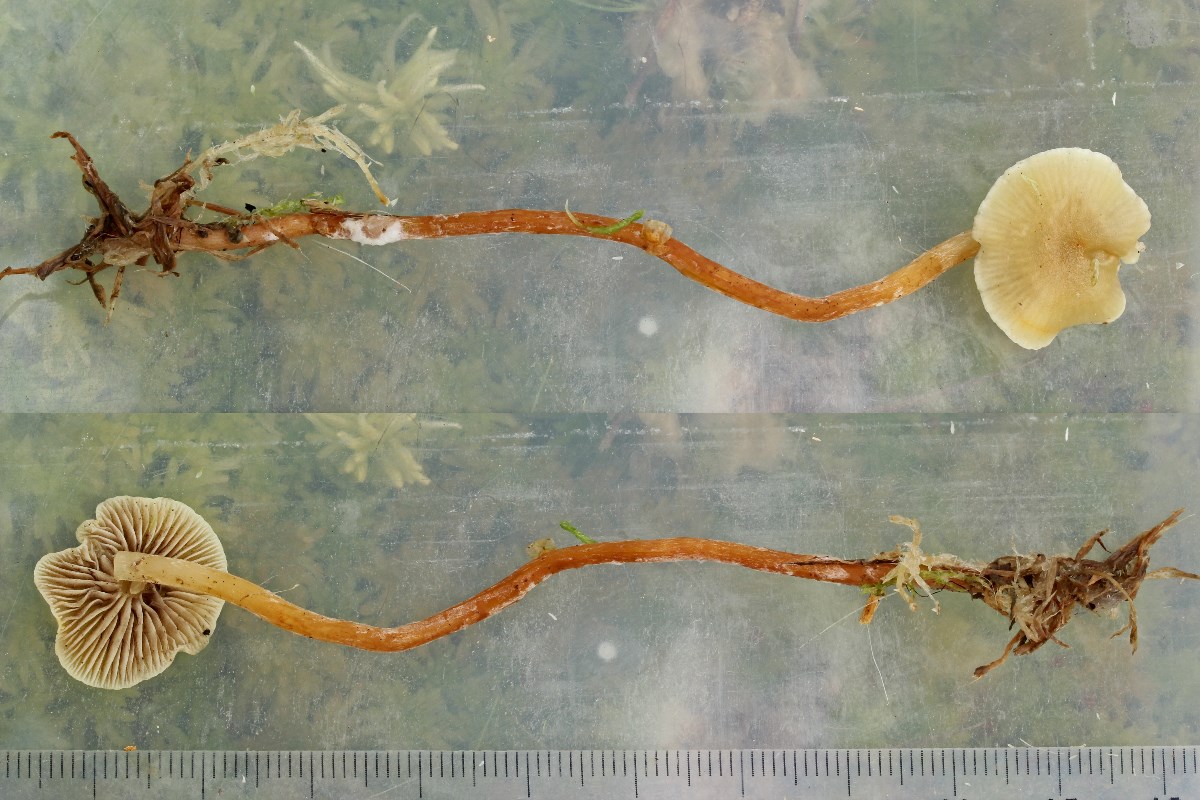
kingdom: Fungi
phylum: Basidiomycota
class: Agaricomycetes
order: Agaricales
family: Strophariaceae
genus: Hypholoma
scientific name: Hypholoma elongatum
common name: slank svovlhat
